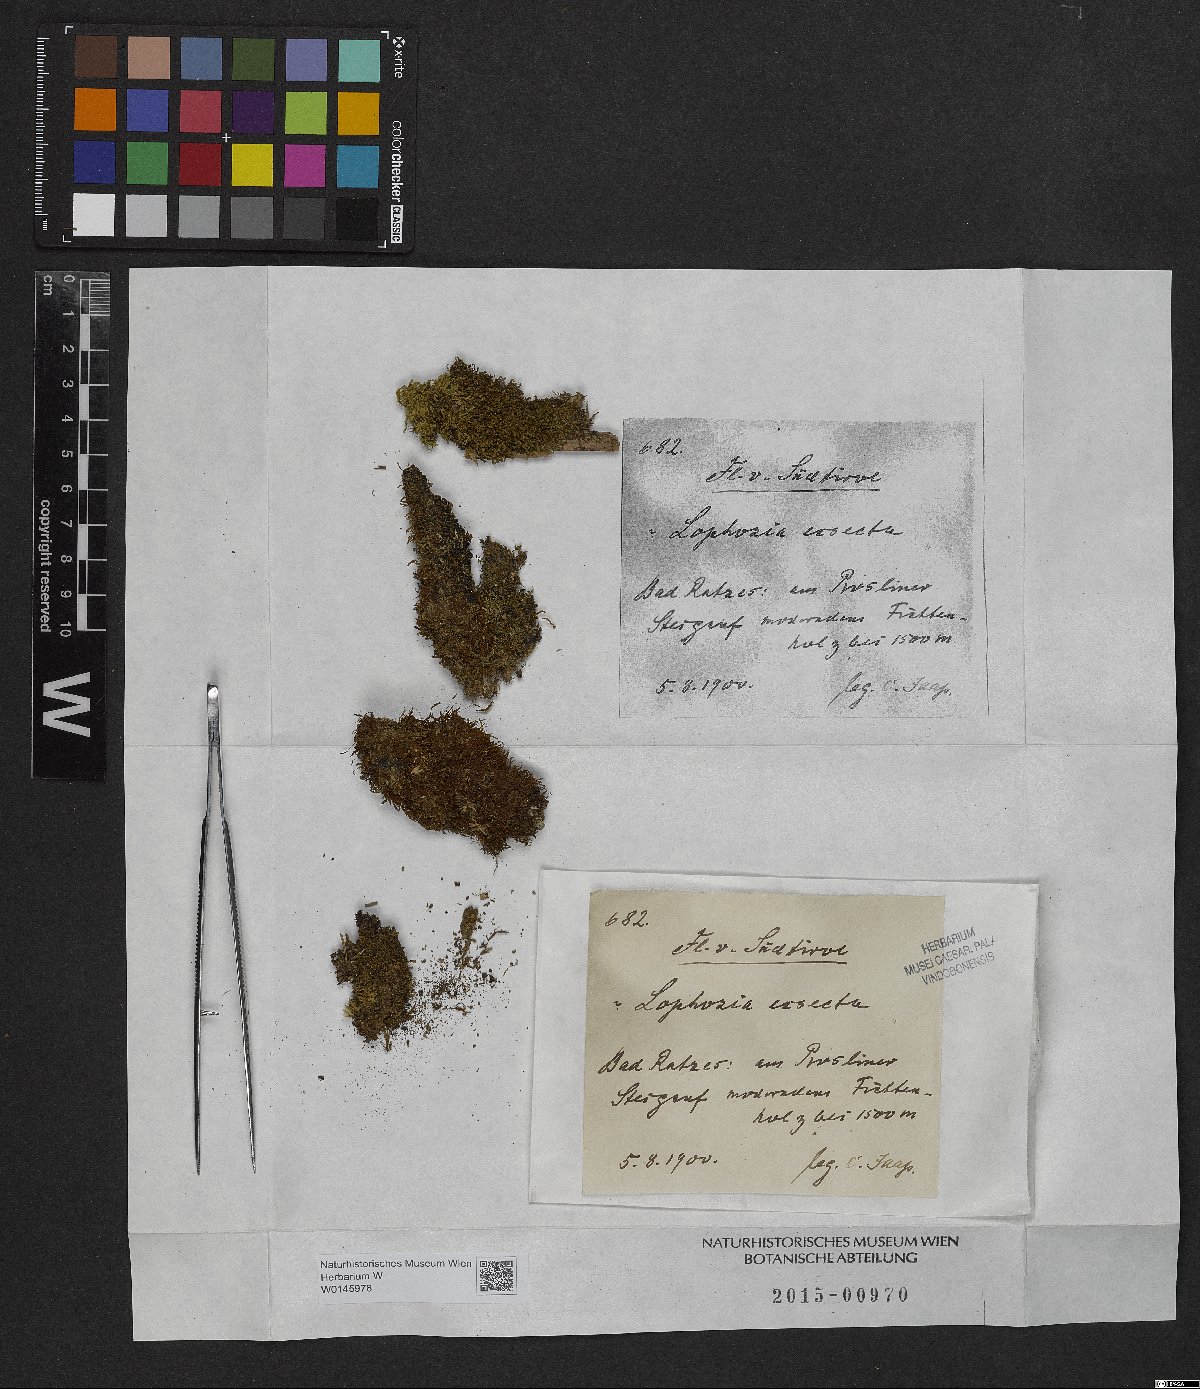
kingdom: Plantae
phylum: Marchantiophyta
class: Jungermanniopsida
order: Jungermanniales
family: Lophoziaceae
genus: Tritomaria
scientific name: Tritomaria exsecta
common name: Cut notchwort
